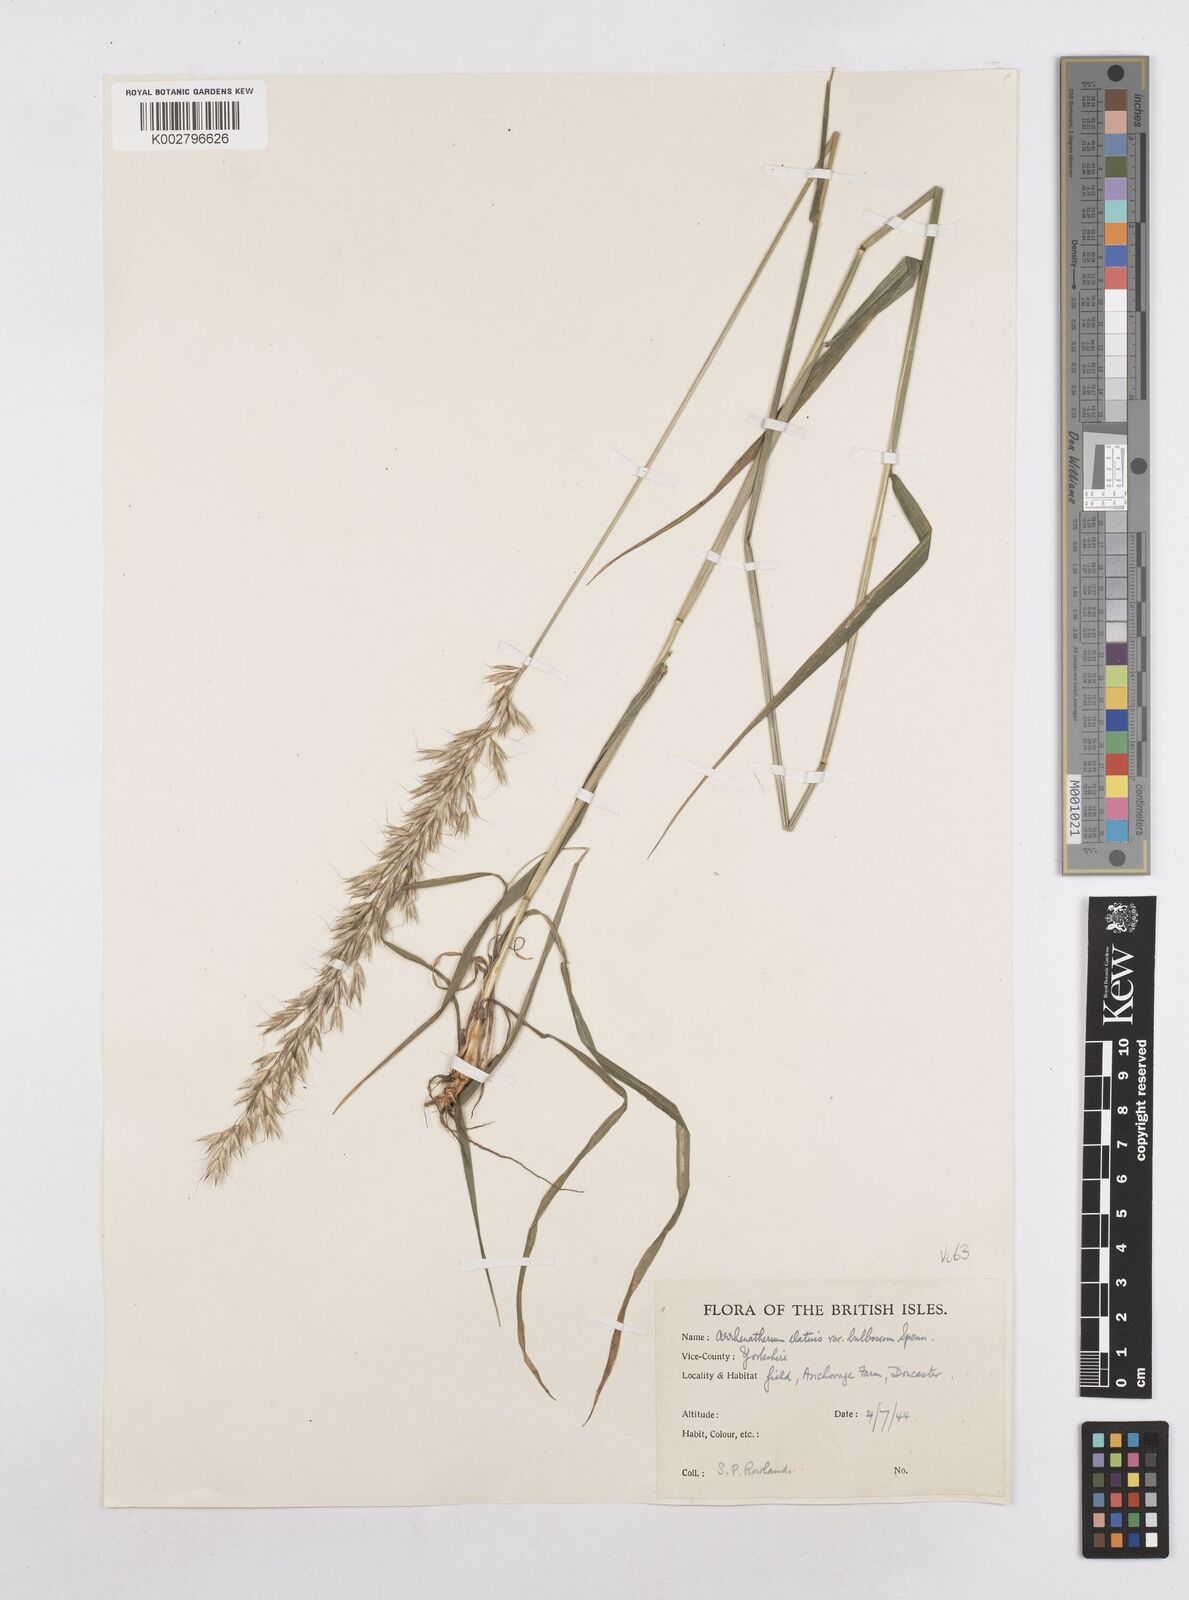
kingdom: Plantae
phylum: Tracheophyta
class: Liliopsida
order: Poales
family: Poaceae
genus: Arrhenatherum
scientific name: Arrhenatherum elatius
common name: Tall oatgrass
